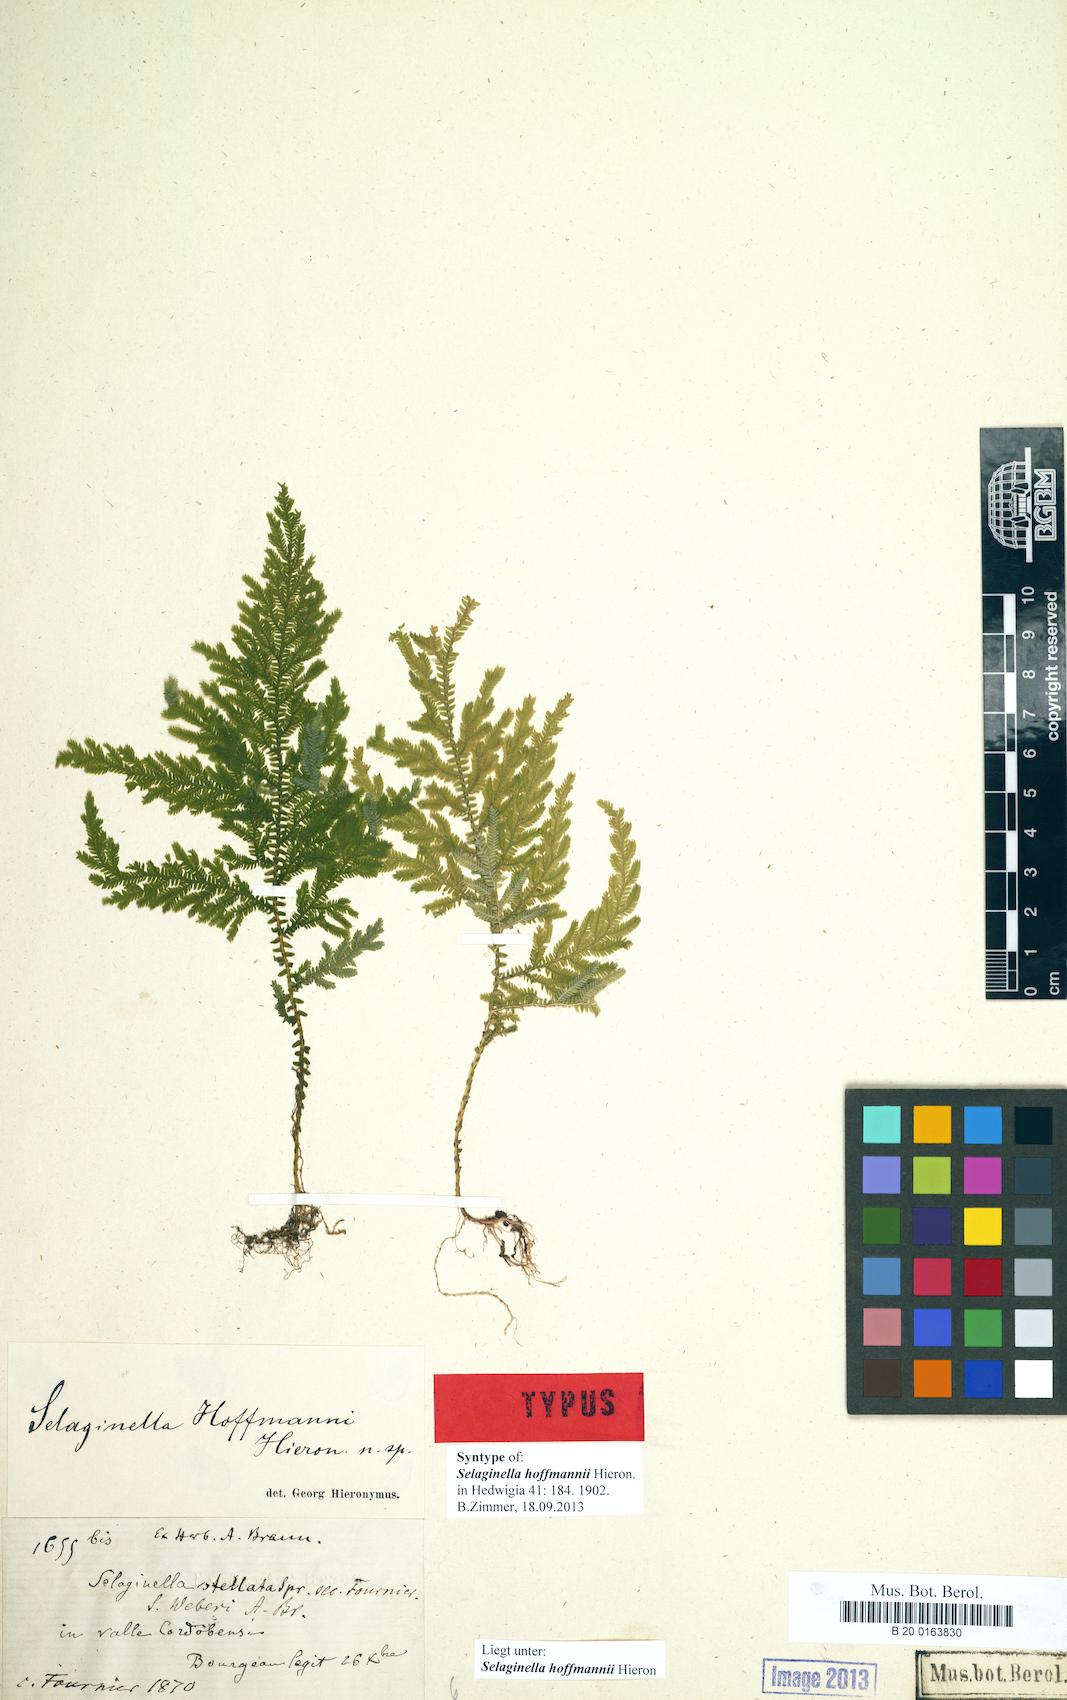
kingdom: Plantae
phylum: Tracheophyta
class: Lycopodiopsida
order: Selaginellales
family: Selaginellaceae
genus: Selaginella
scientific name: Selaginella hoffmannii
